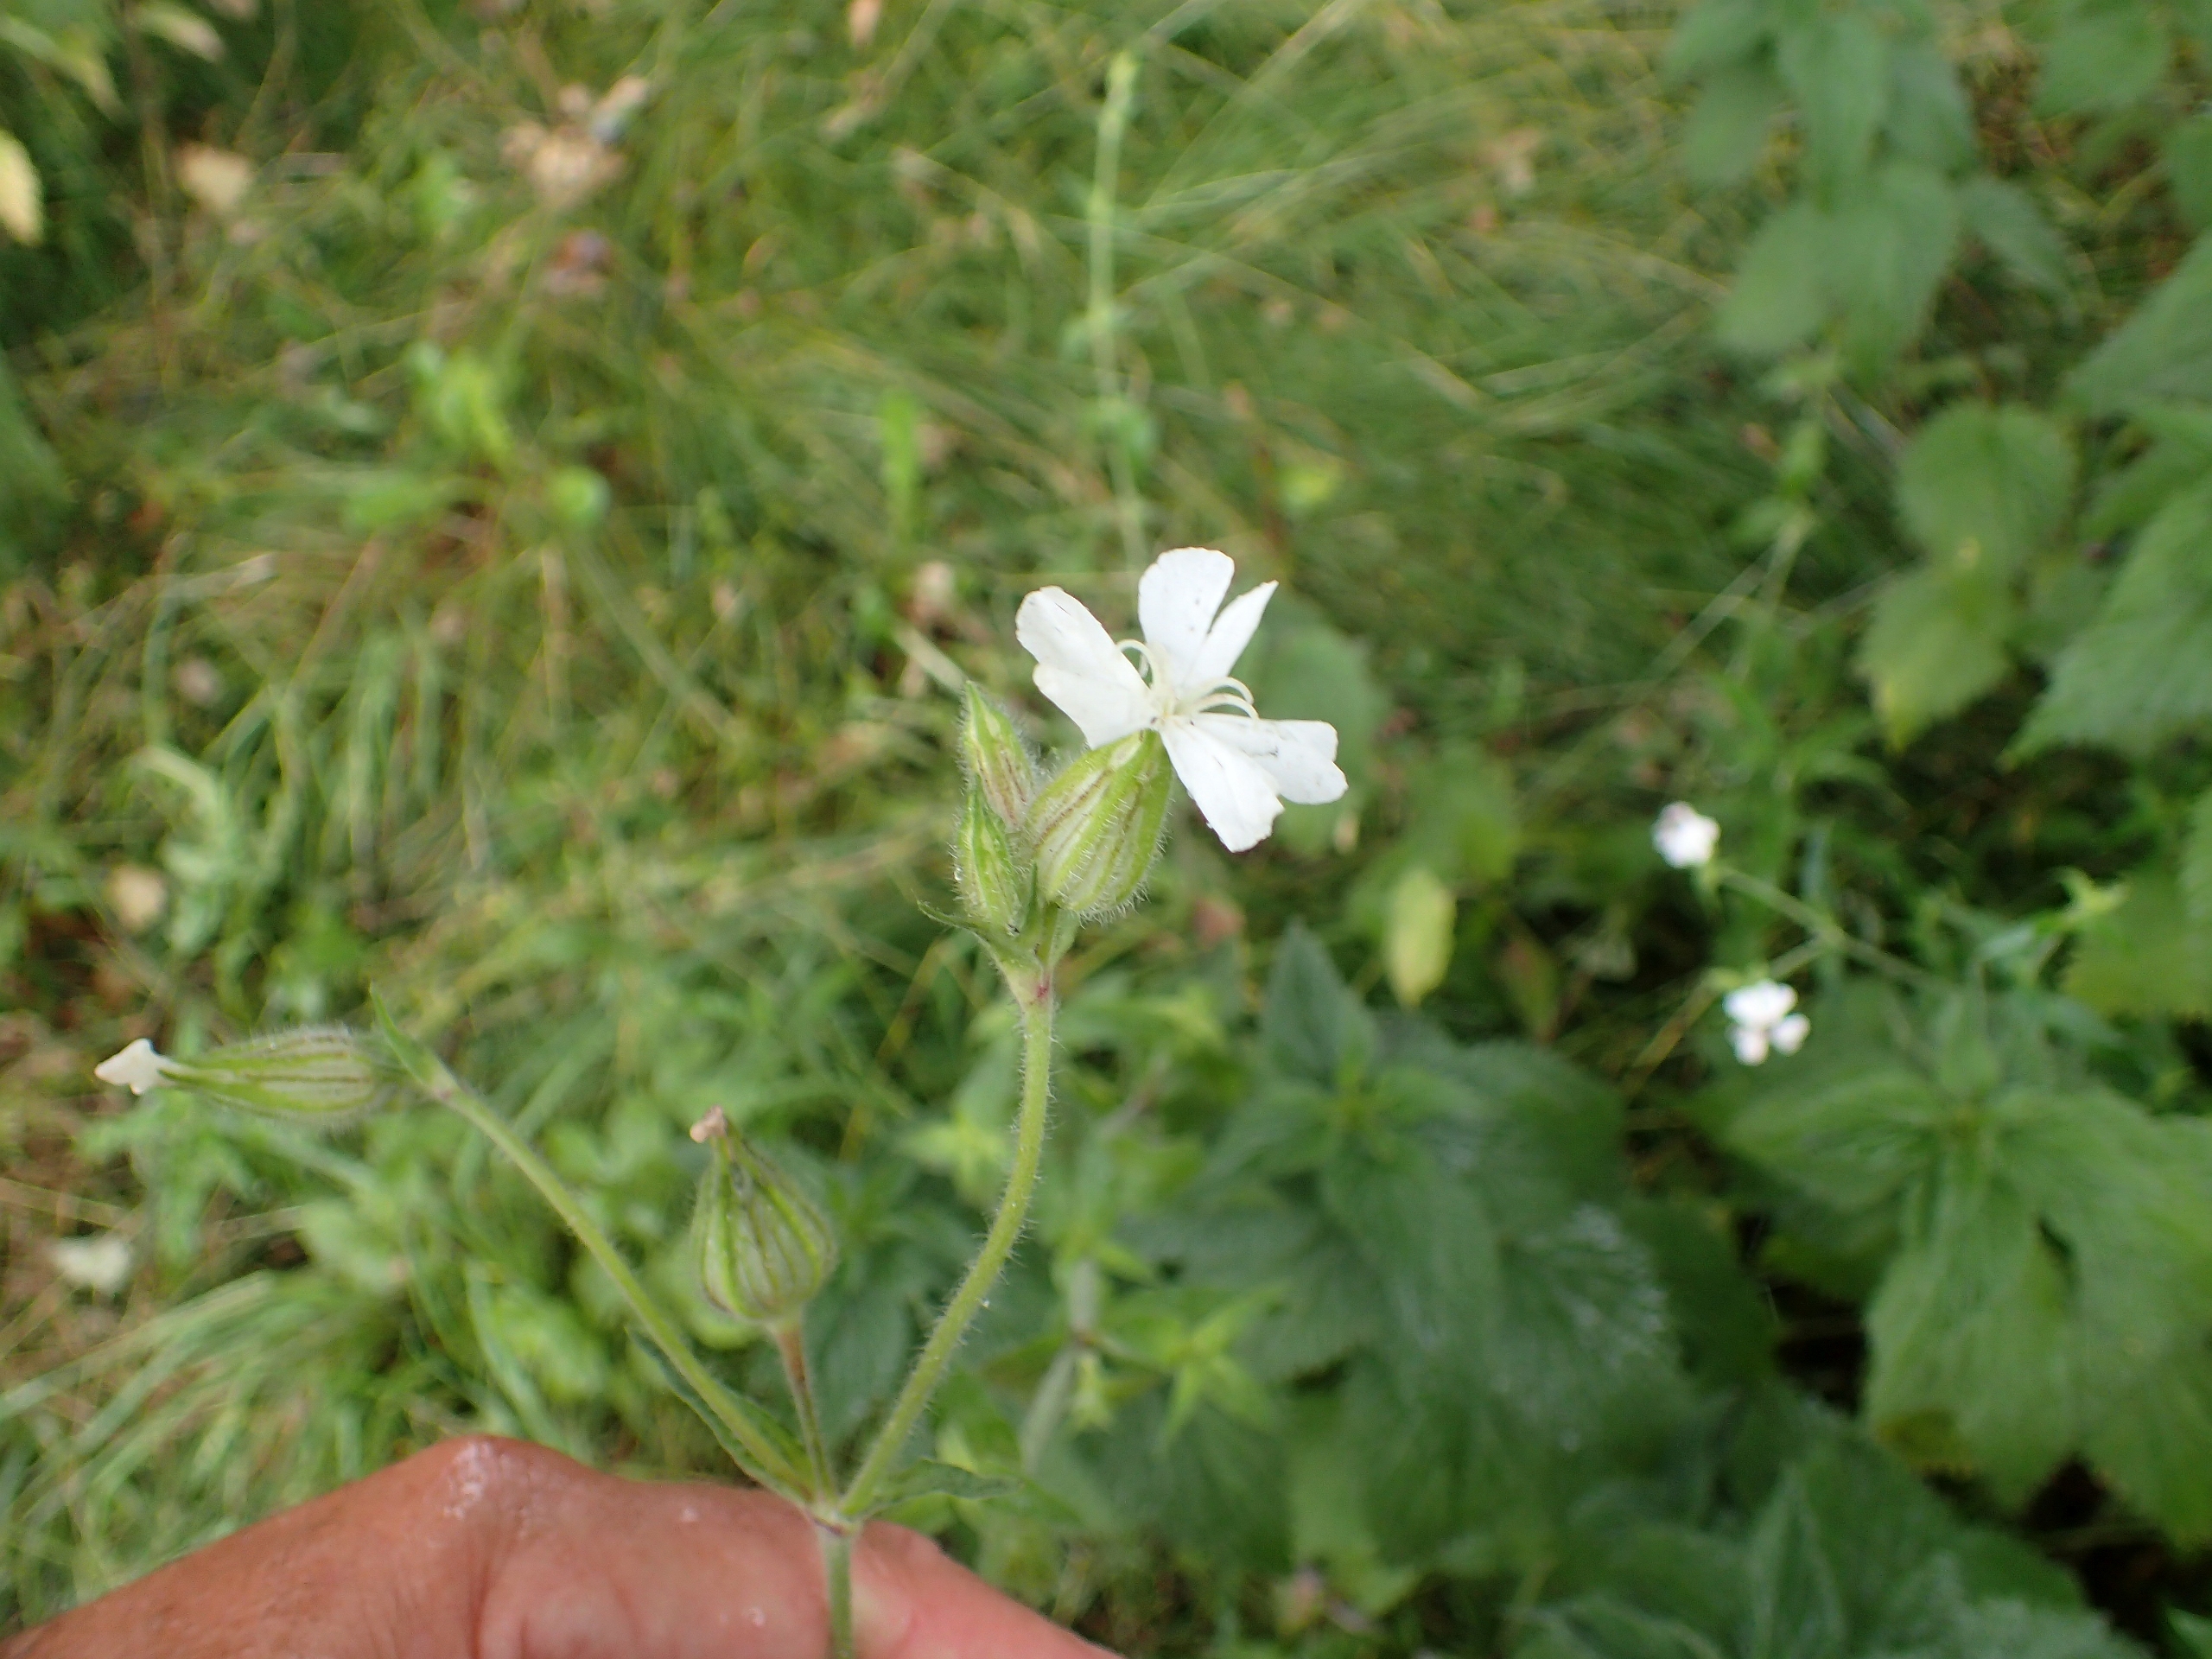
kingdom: Plantae
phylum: Tracheophyta
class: Magnoliopsida
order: Caryophyllales
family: Caryophyllaceae
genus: Silene
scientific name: Silene latifolia
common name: Aftenpragtstjerne
